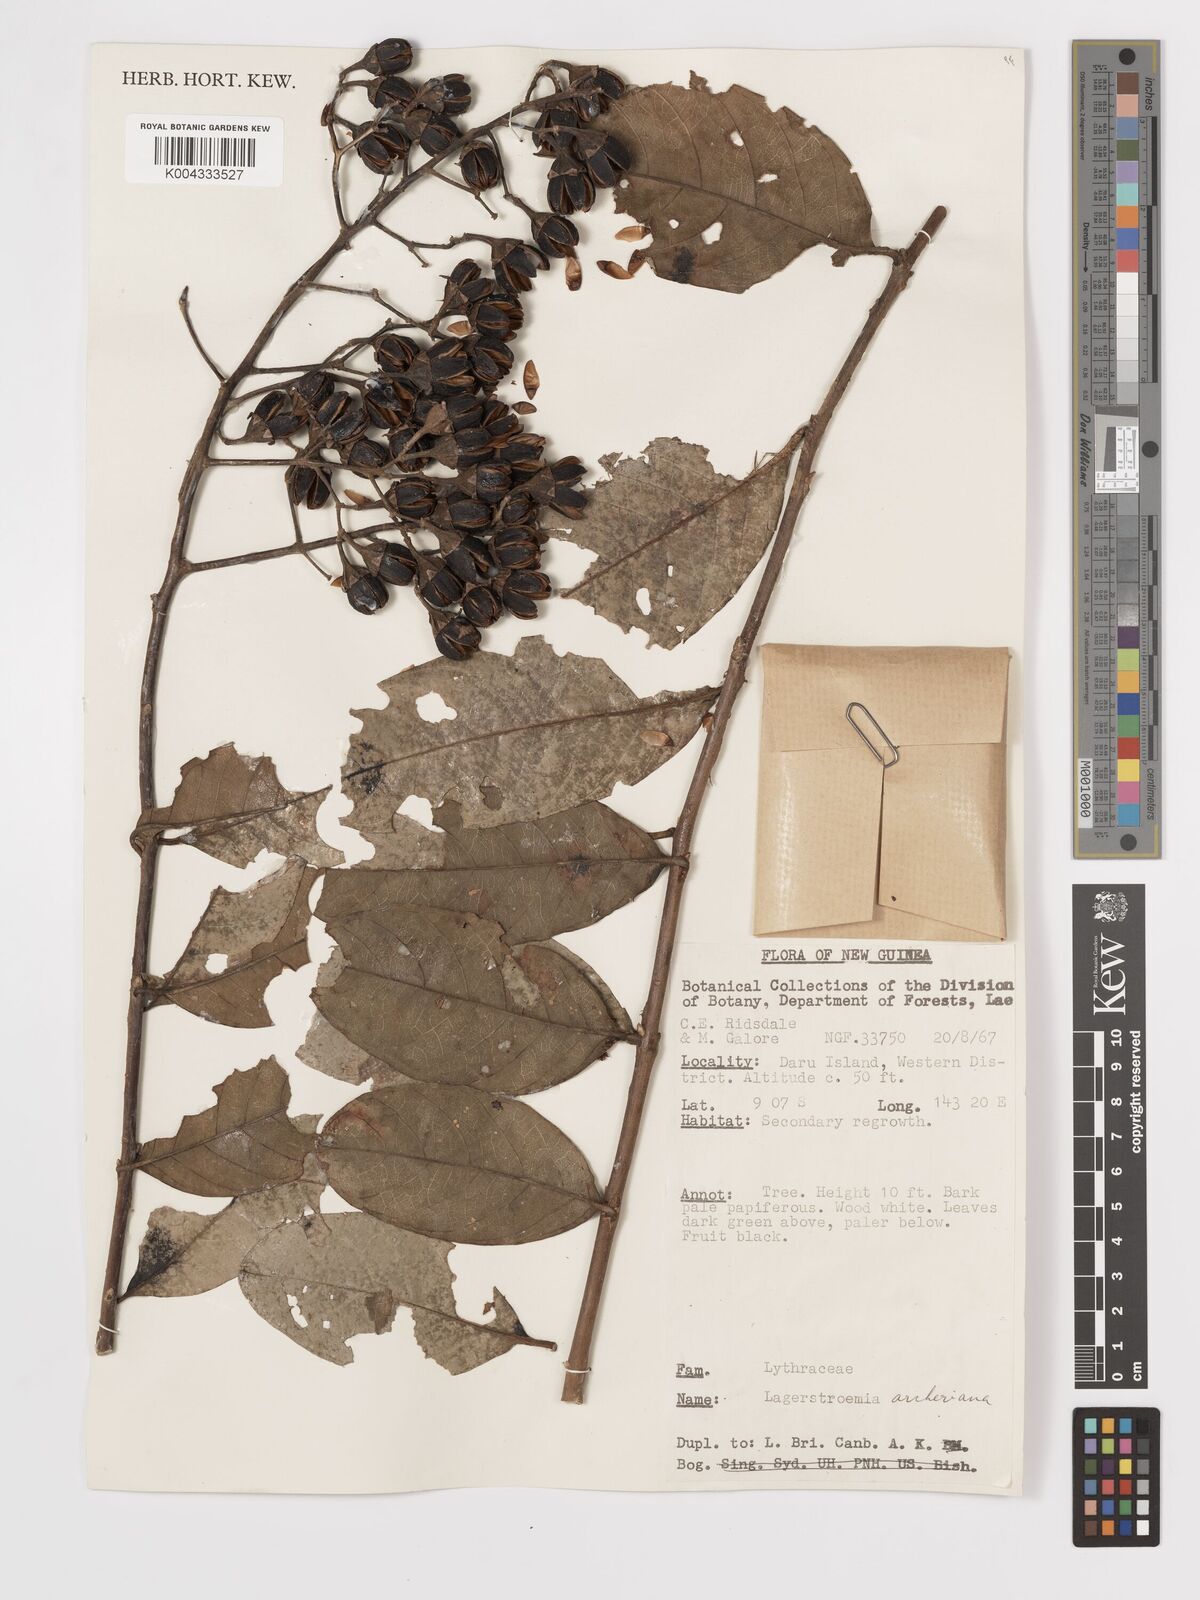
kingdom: Plantae
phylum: Tracheophyta
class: Magnoliopsida
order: Myrtales
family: Lythraceae
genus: Lagerstroemia
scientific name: Lagerstroemia engleriana
